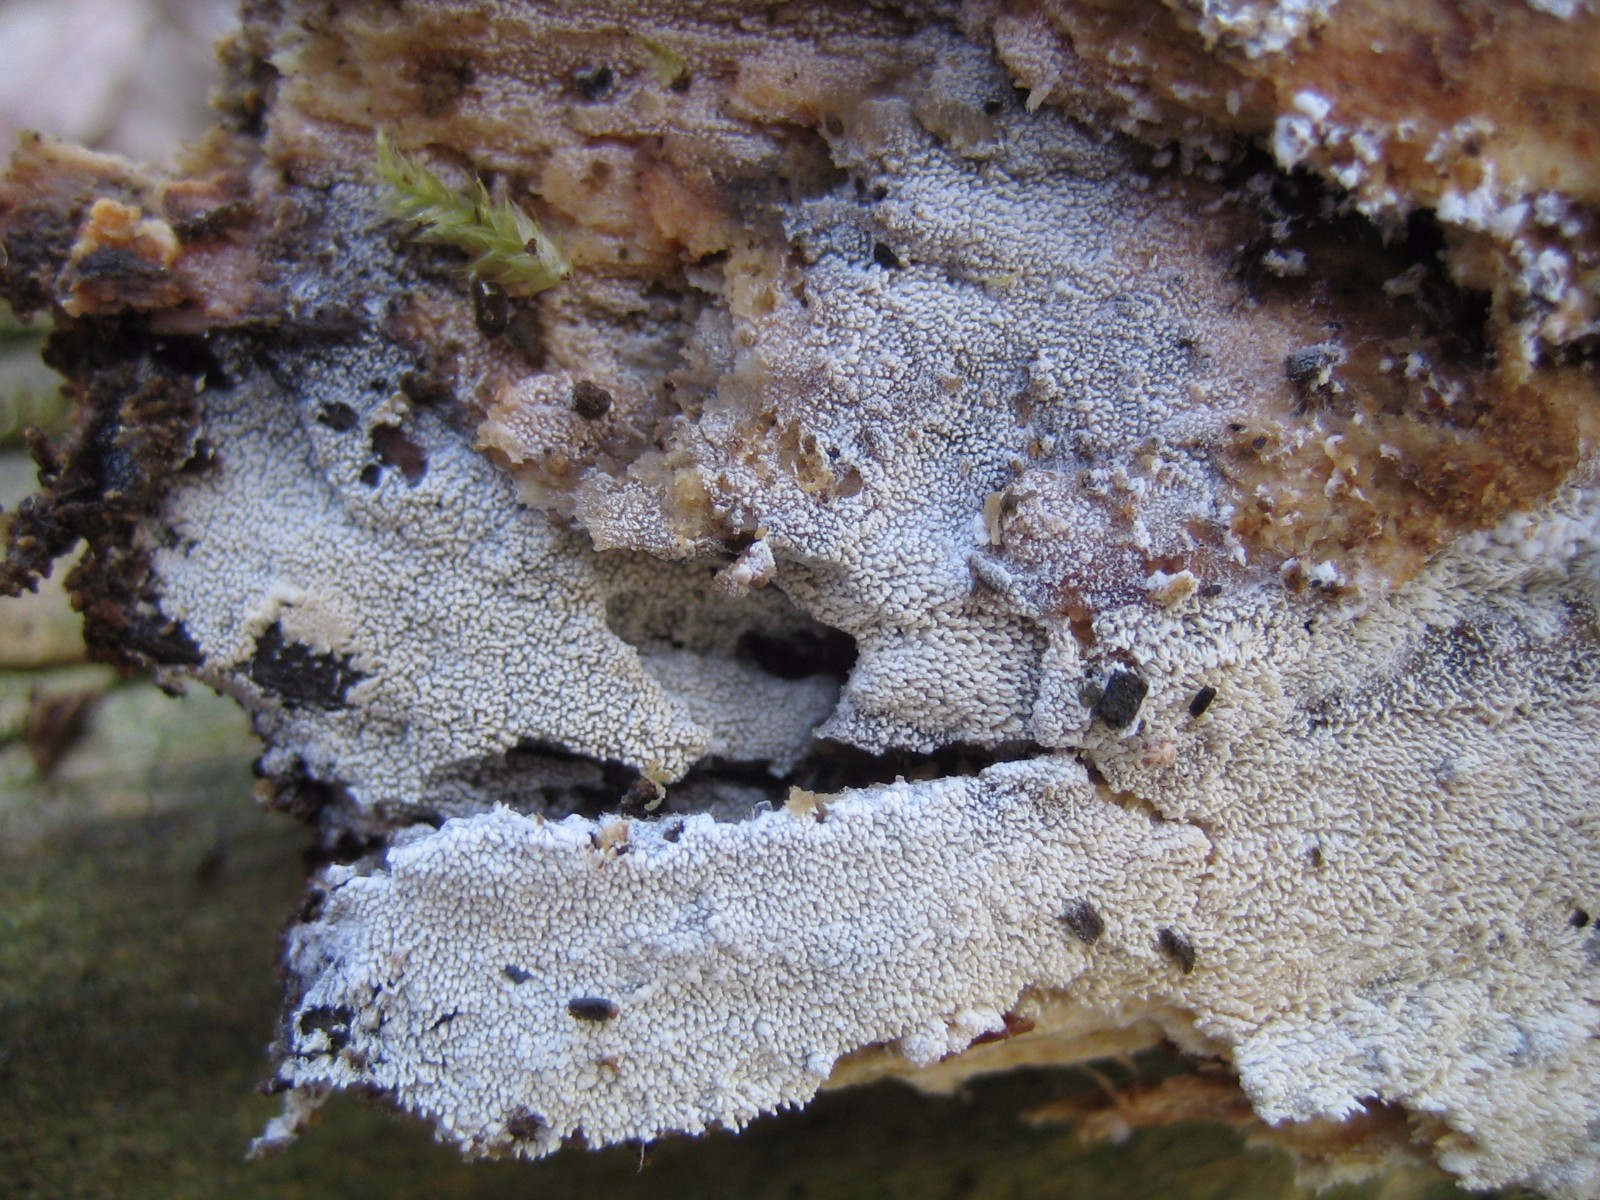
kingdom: Fungi
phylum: Basidiomycota
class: Agaricomycetes
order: Corticiales
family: Corticiaceae
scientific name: Corticiaceae
